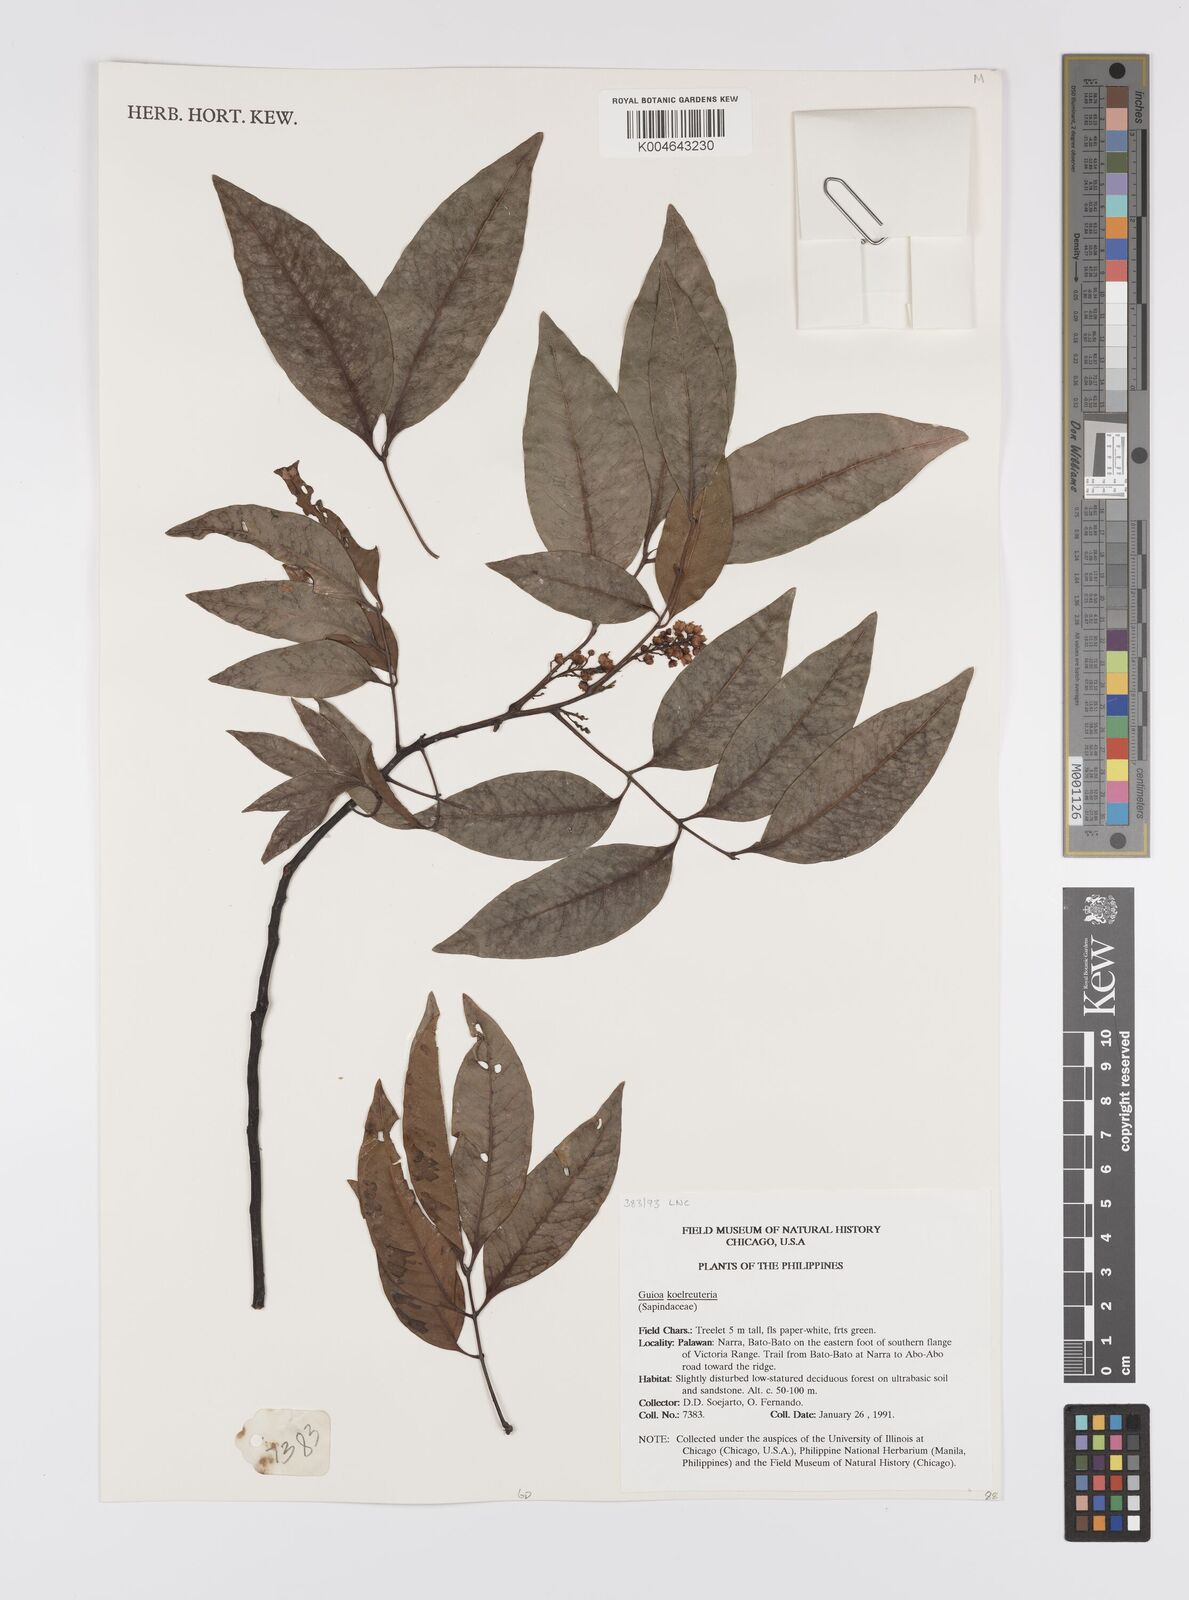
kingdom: Plantae
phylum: Tracheophyta
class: Magnoliopsida
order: Sapindales
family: Sapindaceae
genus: Guioa
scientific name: Guioa koelreuteria
